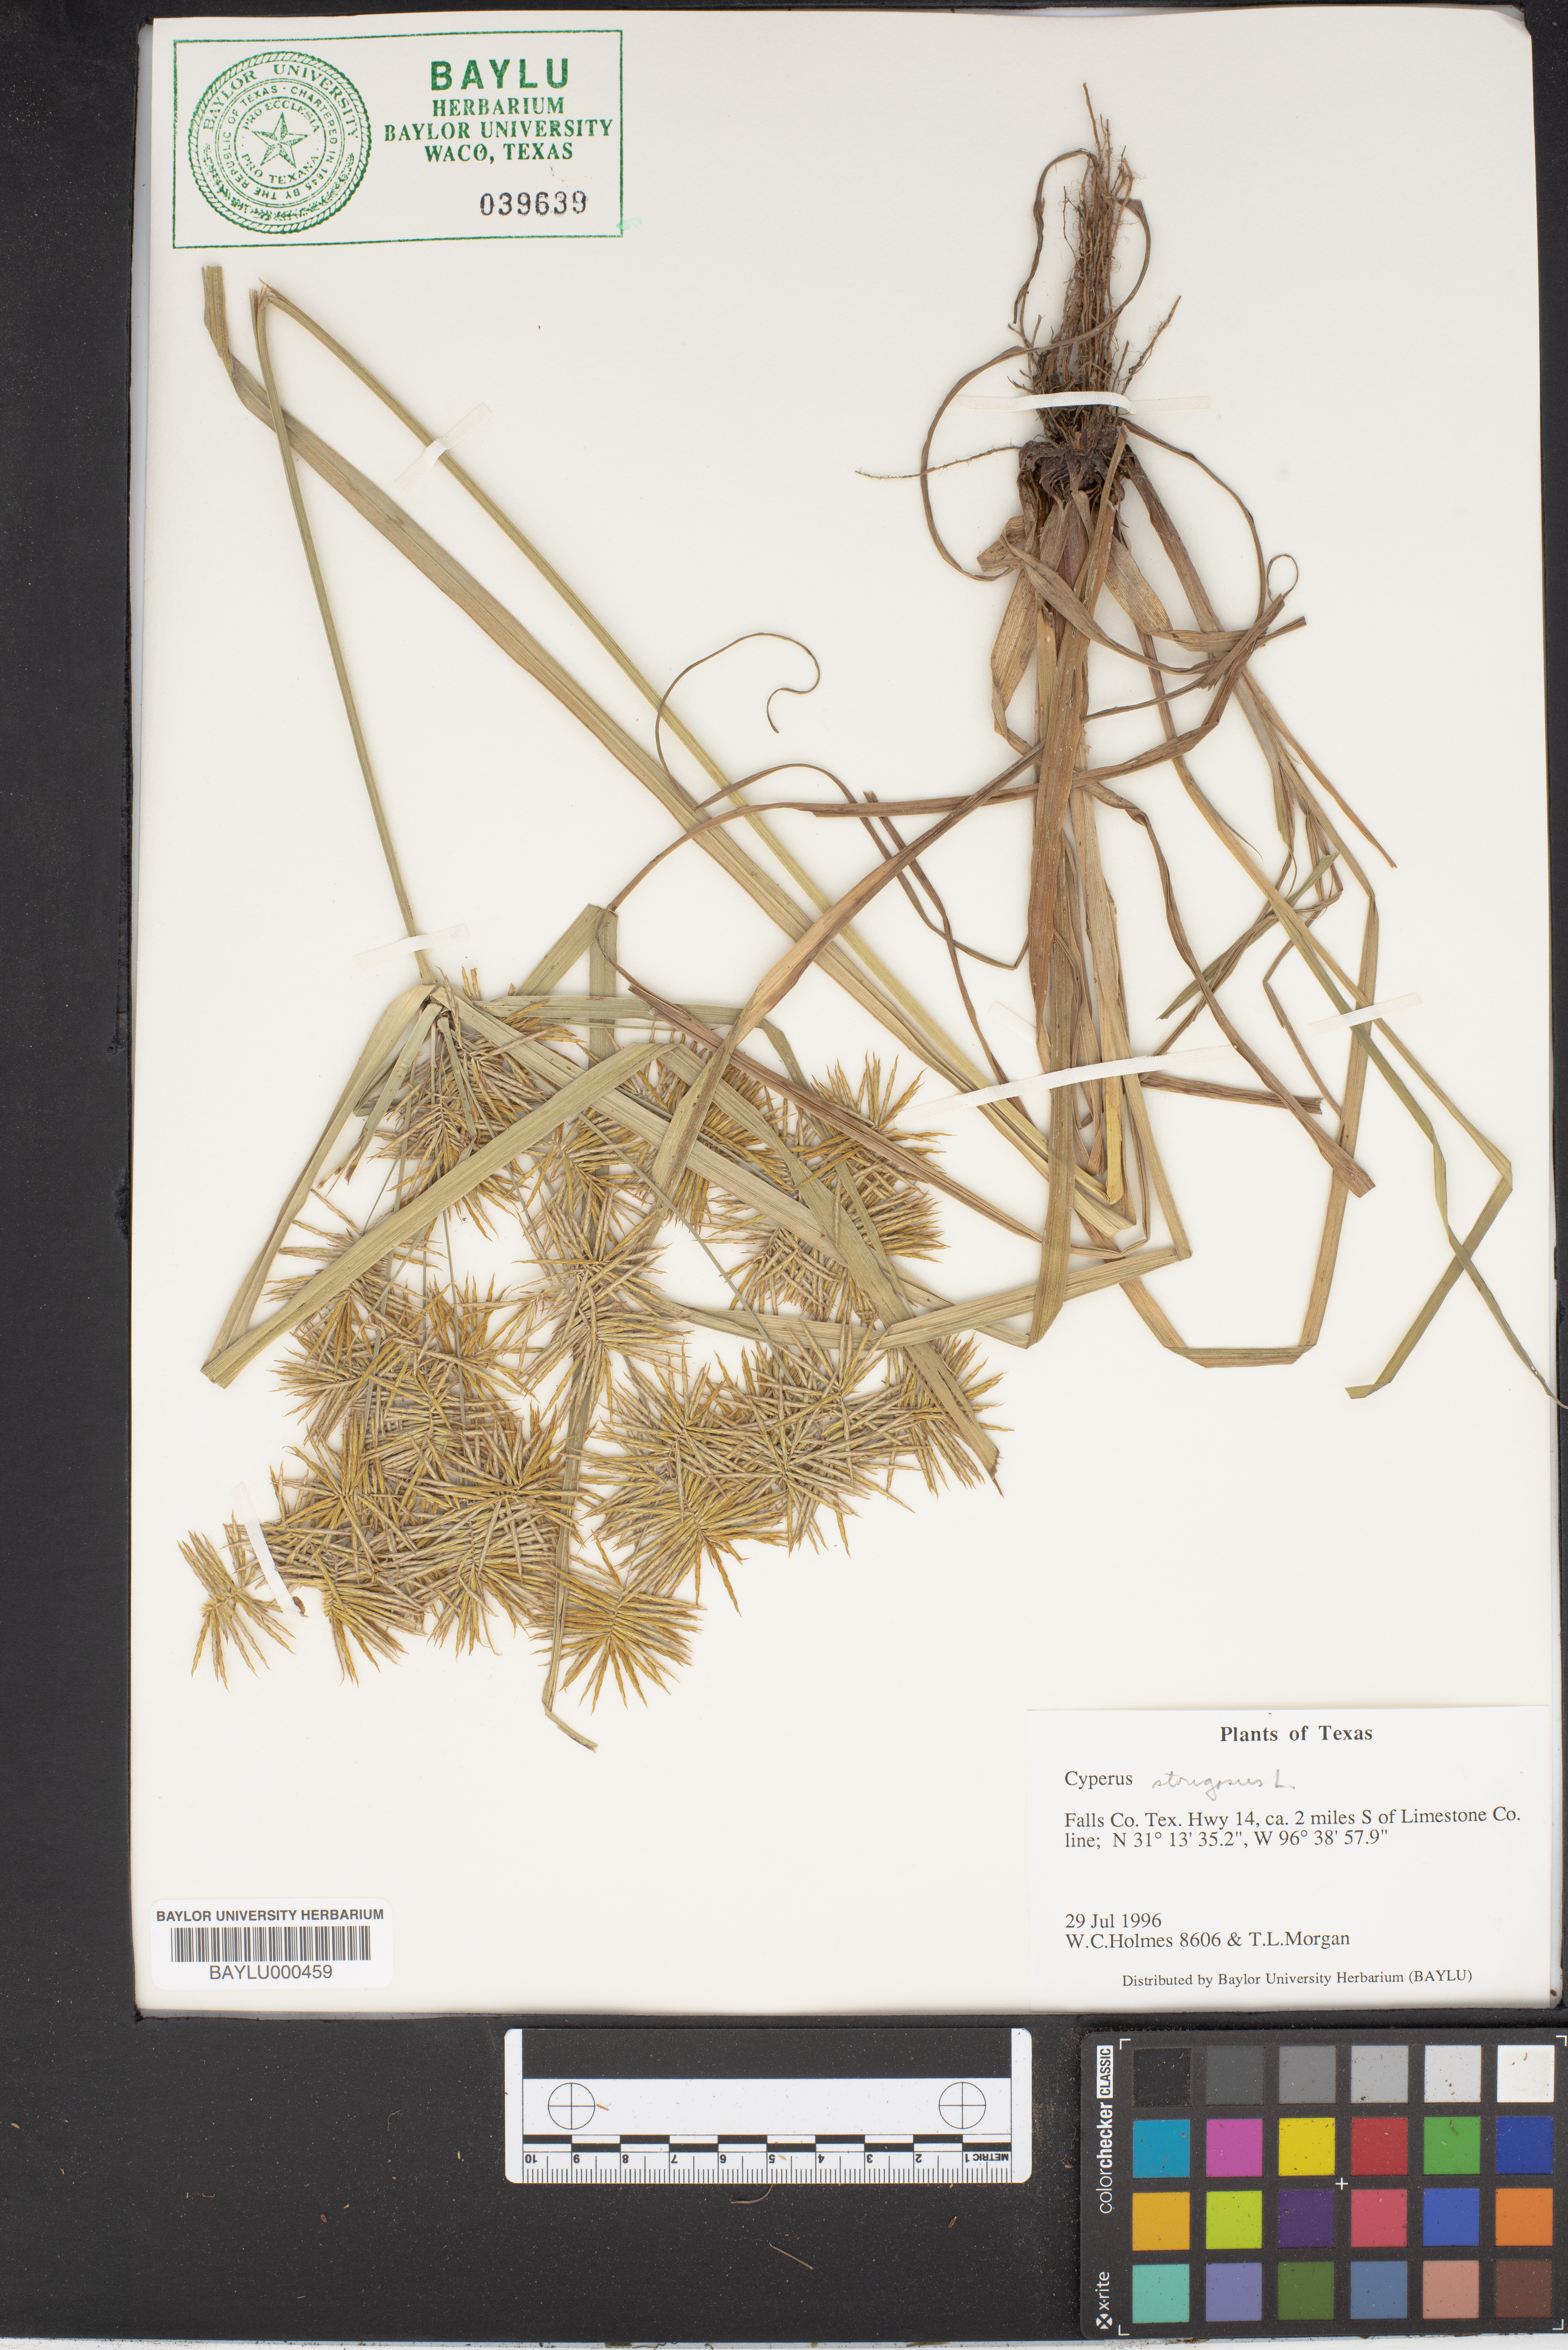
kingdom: Plantae
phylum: Tracheophyta
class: Liliopsida
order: Poales
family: Cyperaceae
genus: Cyperus
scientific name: Cyperus strigosus
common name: False nutsedge
